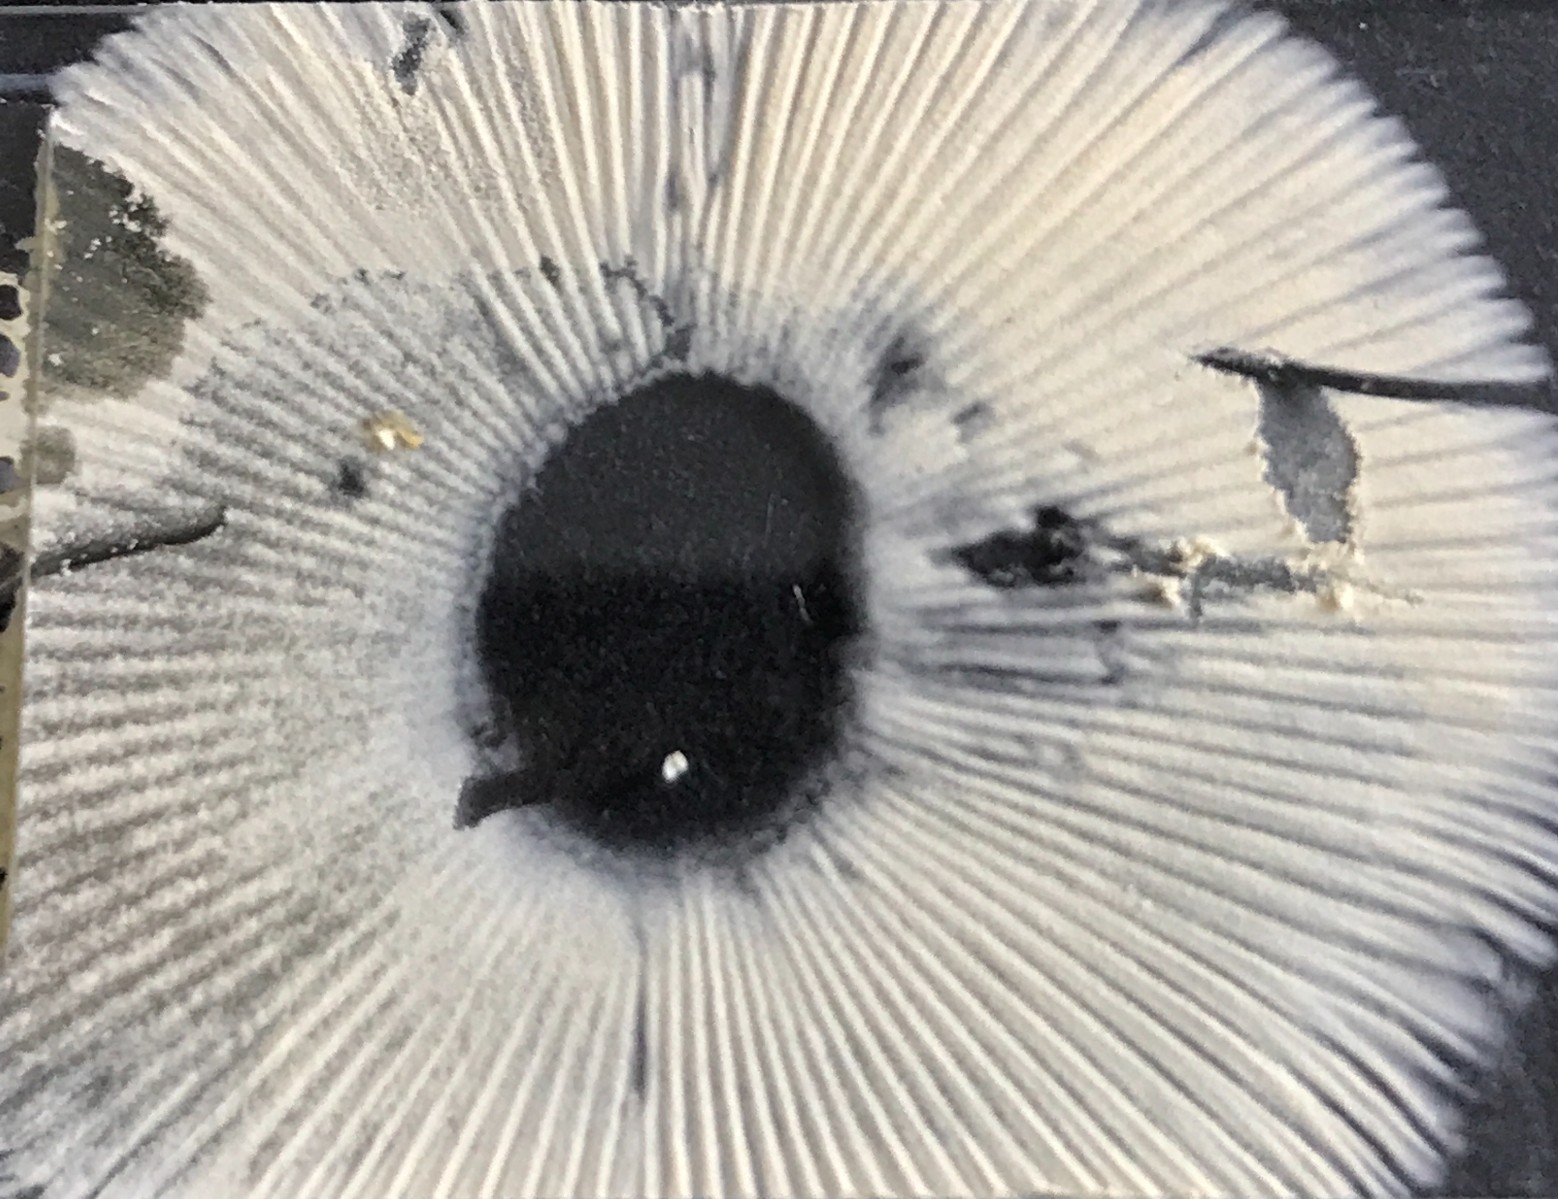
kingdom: Fungi
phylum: Basidiomycota
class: Agaricomycetes
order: Russulales
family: Russulaceae
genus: Russula
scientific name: Russula versicolor
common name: foranderlig skørhat
